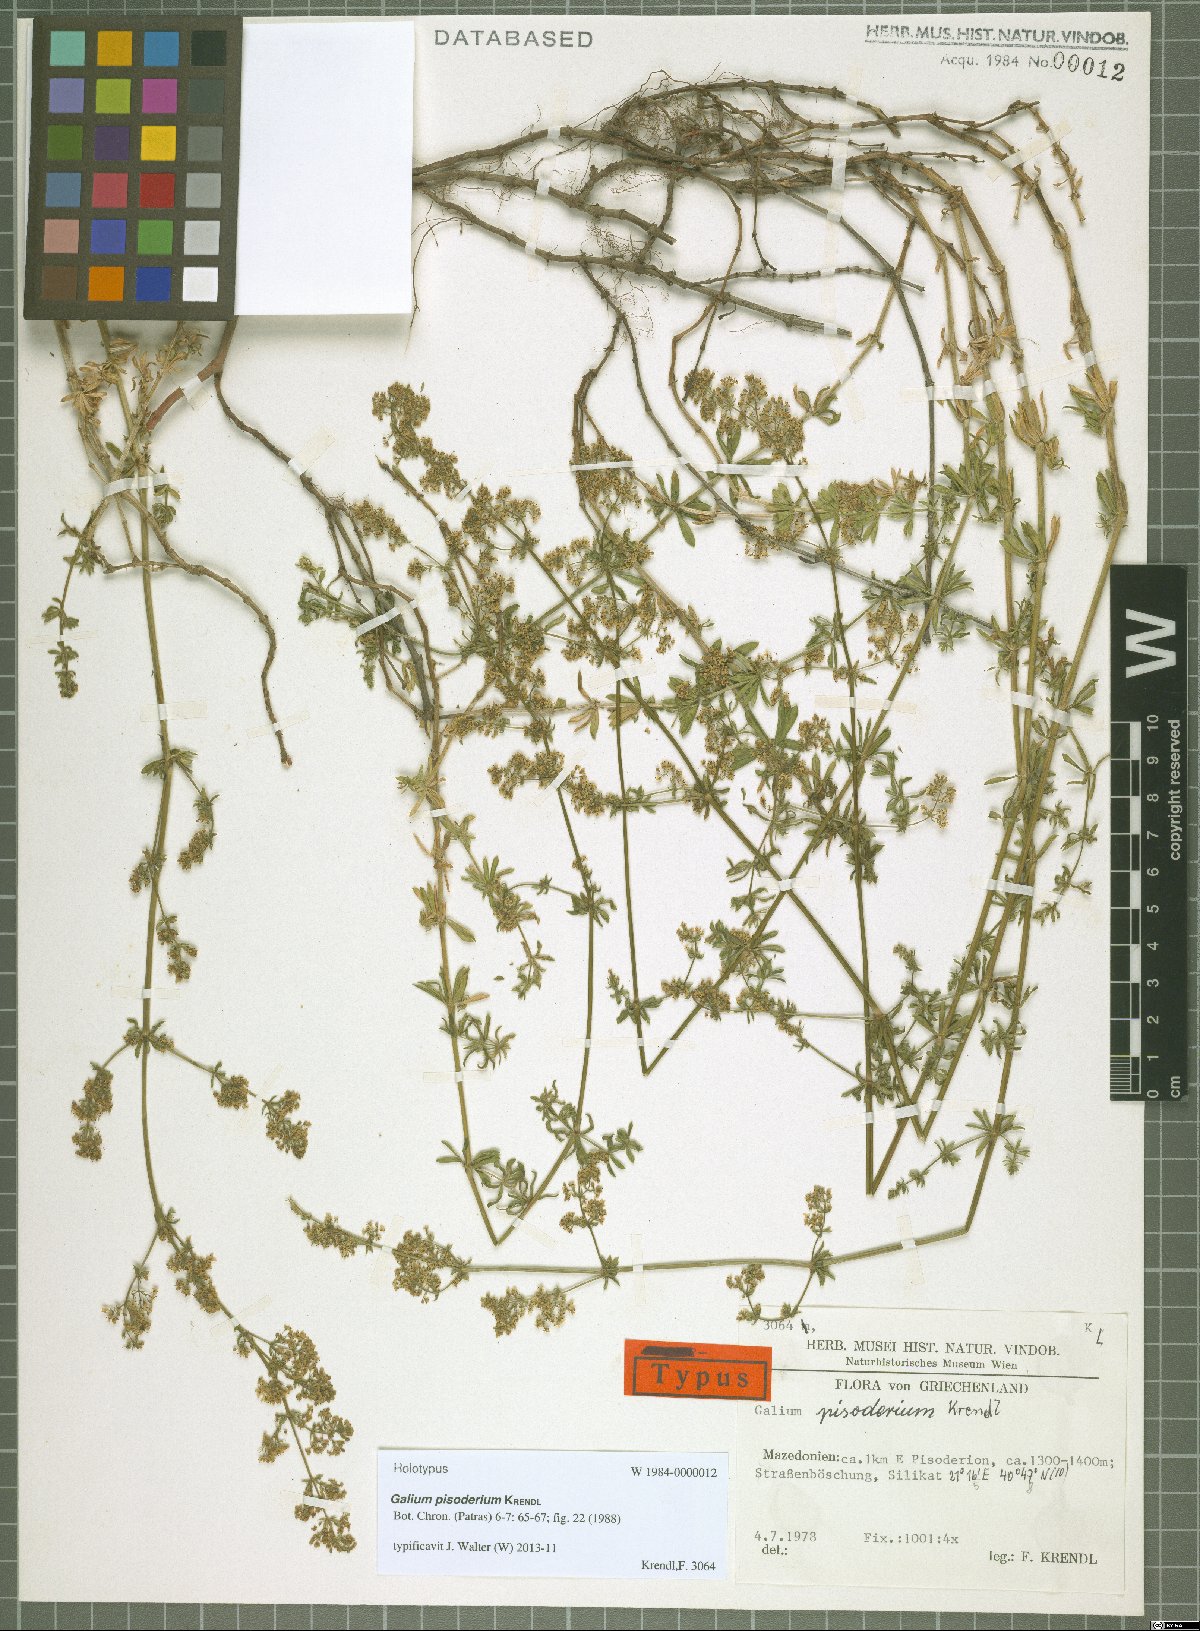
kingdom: Plantae
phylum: Tracheophyta
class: Magnoliopsida
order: Gentianales
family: Rubiaceae
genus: Galium
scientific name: Galium pisoderium
